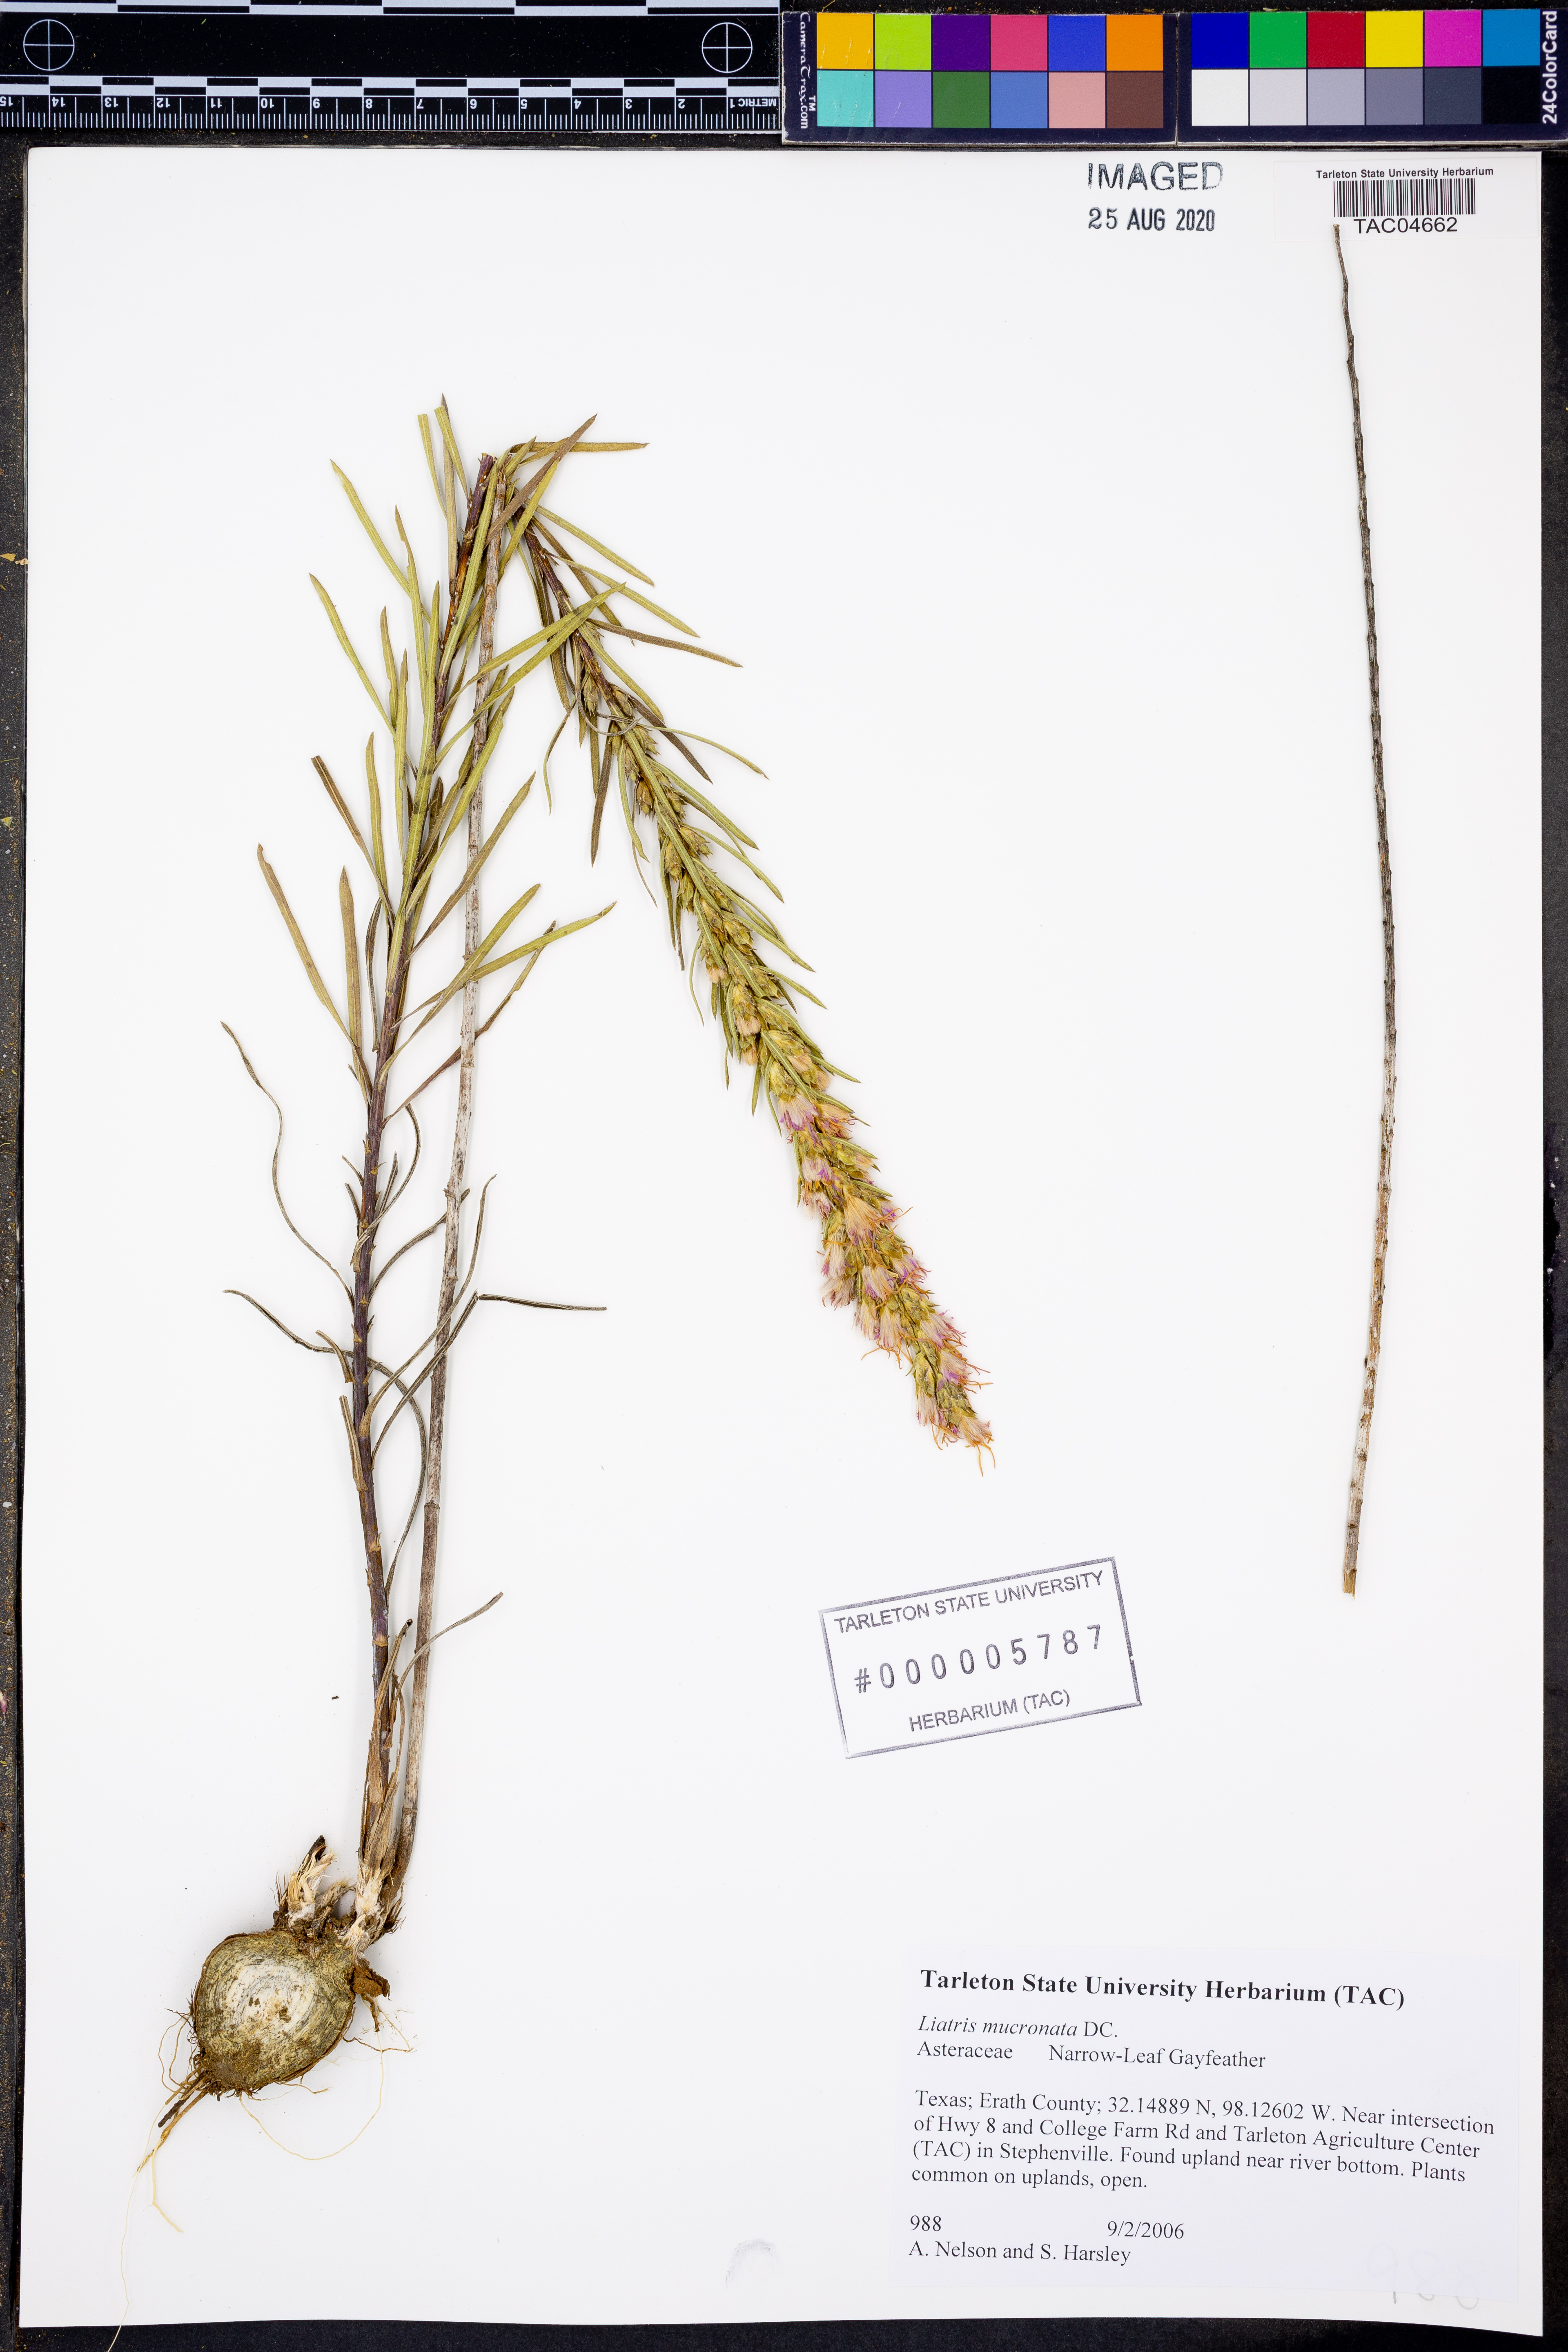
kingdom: Plantae
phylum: Tracheophyta
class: Magnoliopsida
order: Asterales
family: Asteraceae
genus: Liatris
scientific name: Liatris mucronata
